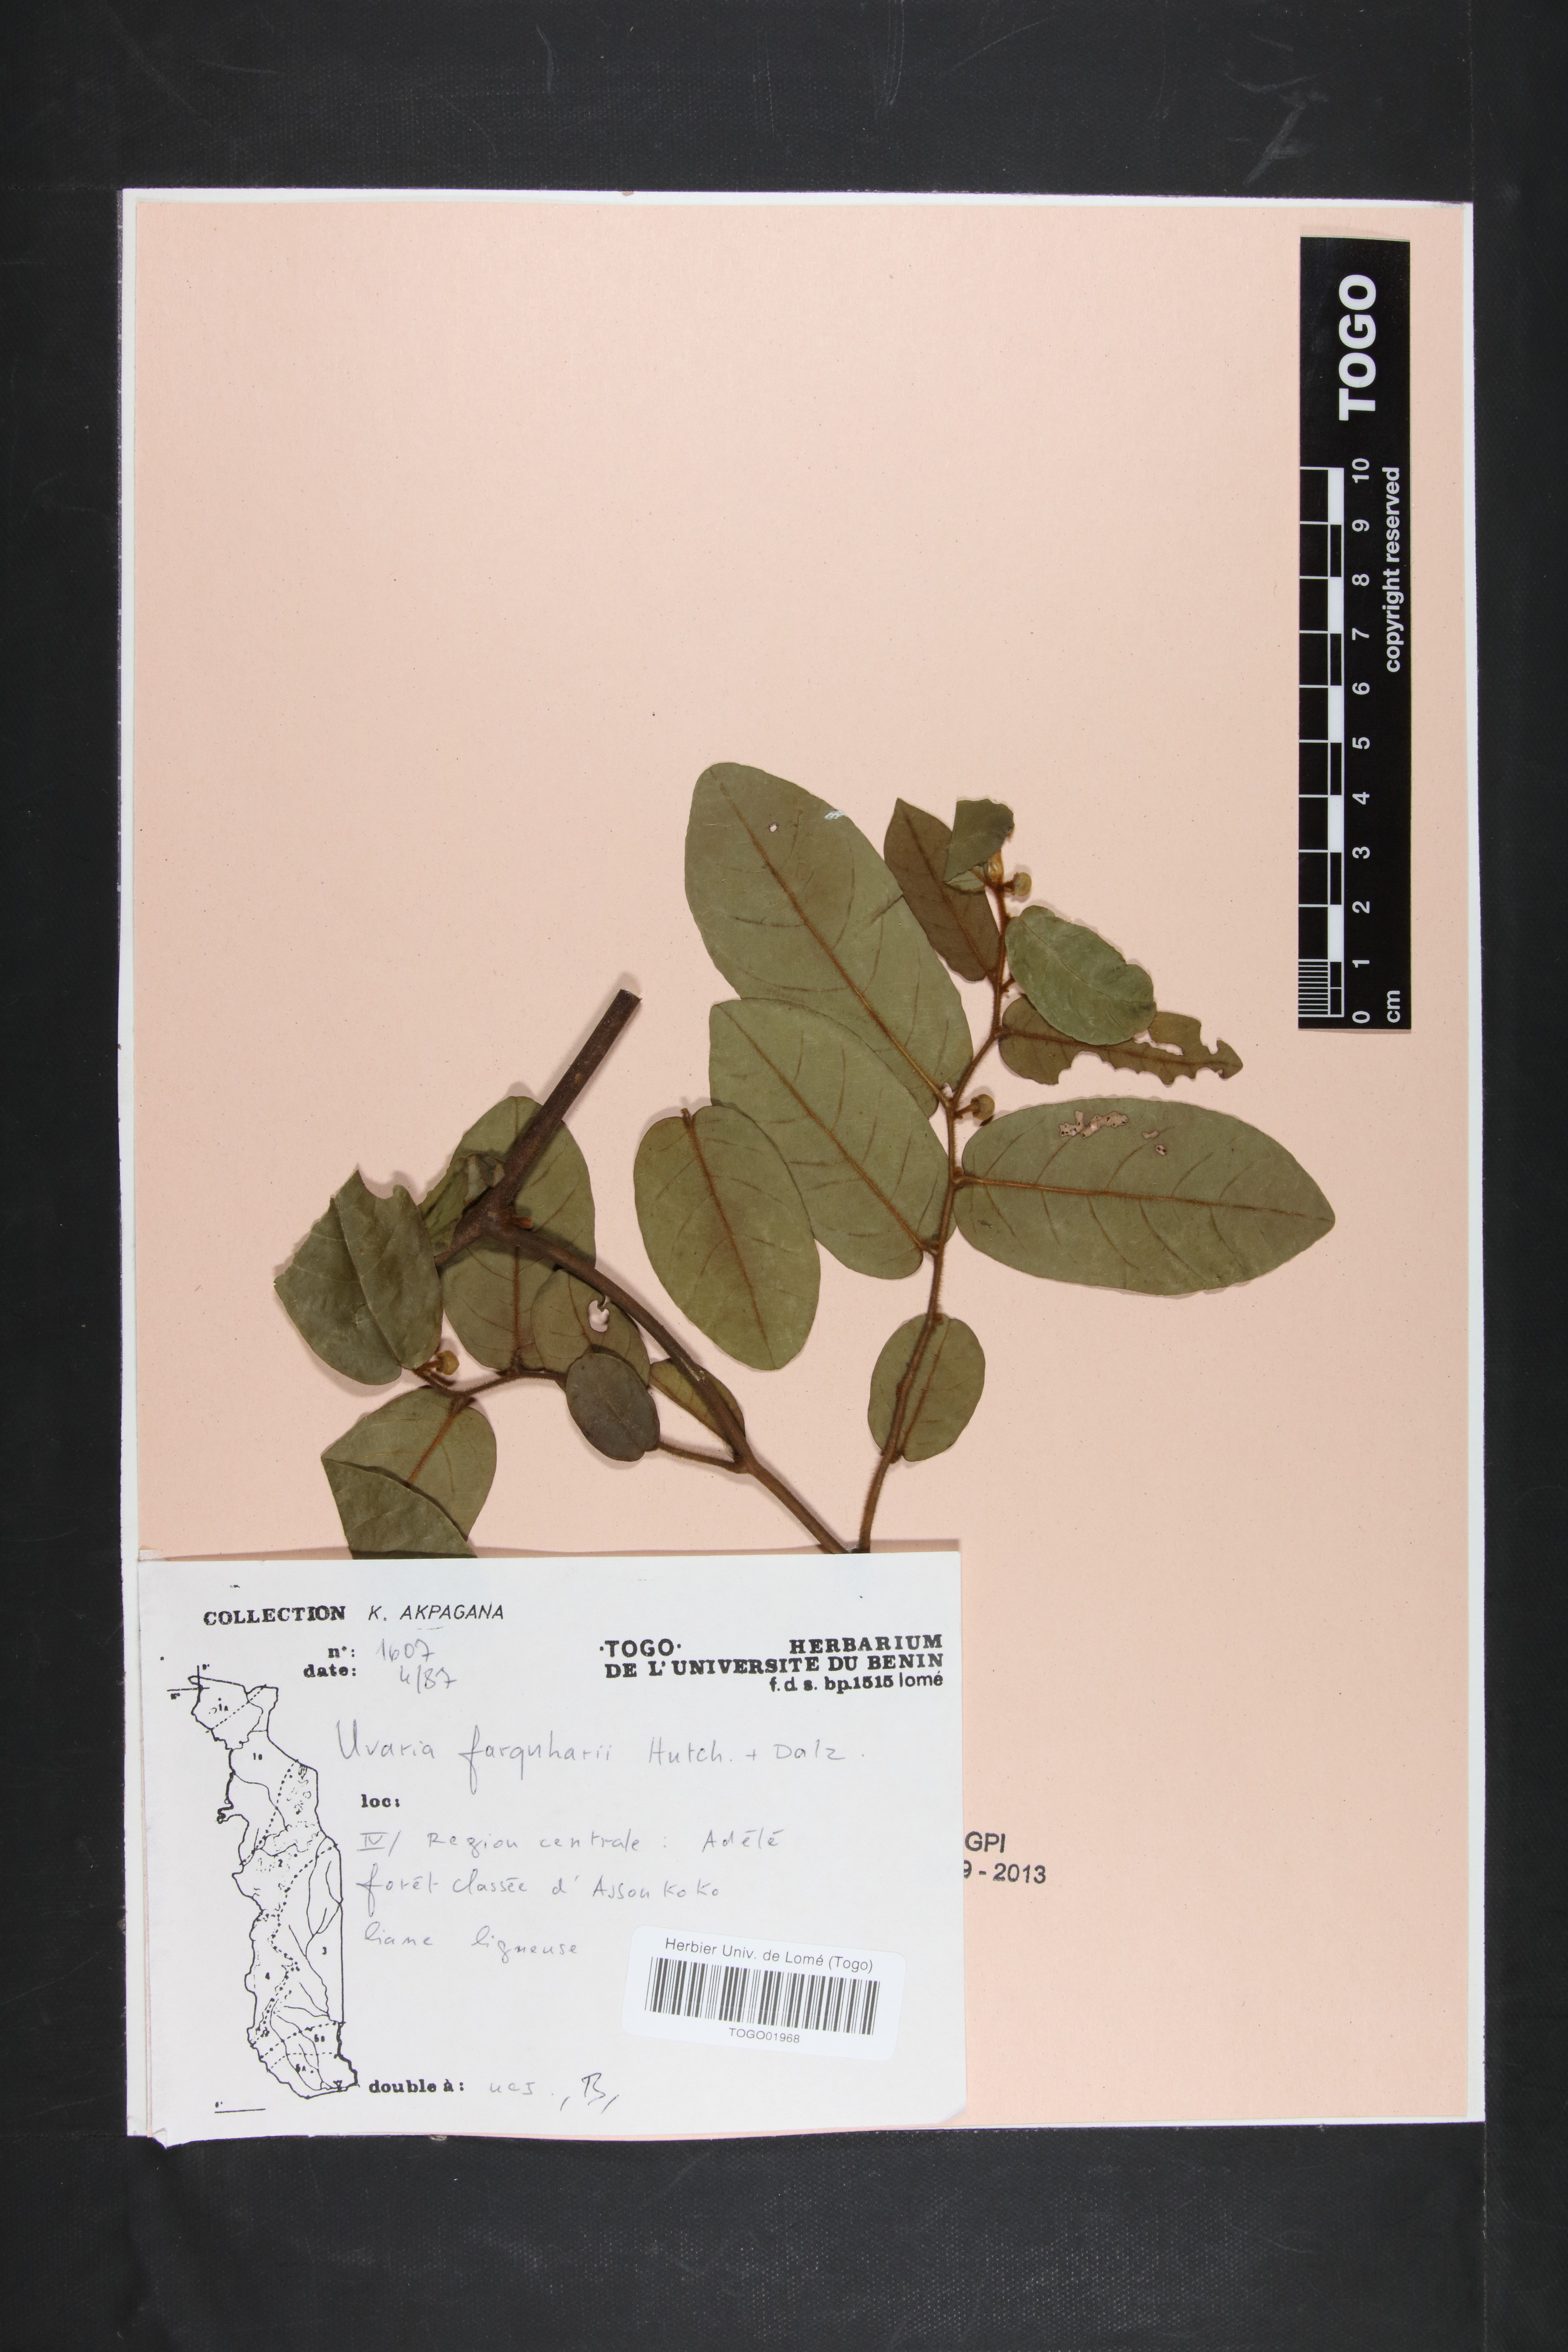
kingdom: Plantae
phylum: Tracheophyta
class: Magnoliopsida
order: Magnoliales
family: Annonaceae
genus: Uvaria
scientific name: Uvaria farquharii
